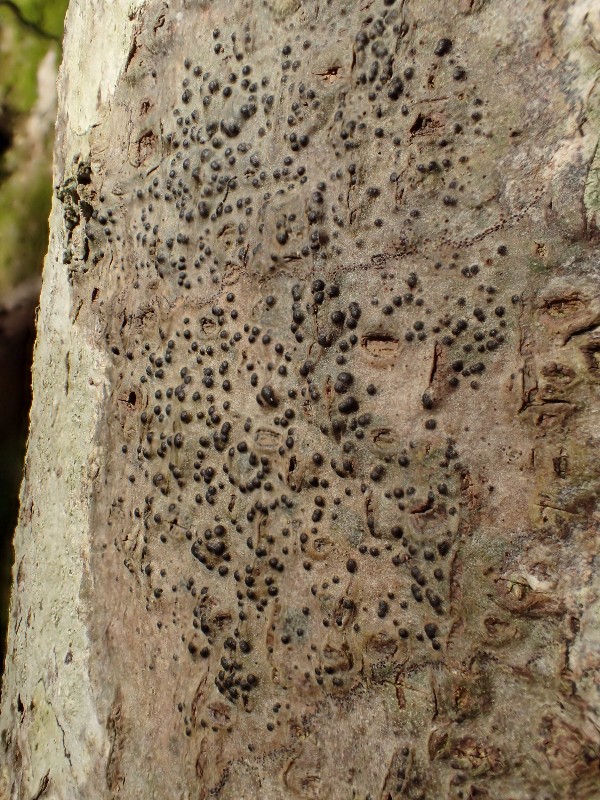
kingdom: Fungi
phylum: Ascomycota
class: Eurotiomycetes
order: Pyrenulales
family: Pyrenulaceae
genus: Pyrenula
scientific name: Pyrenula nitida
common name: glinsende kernelav
